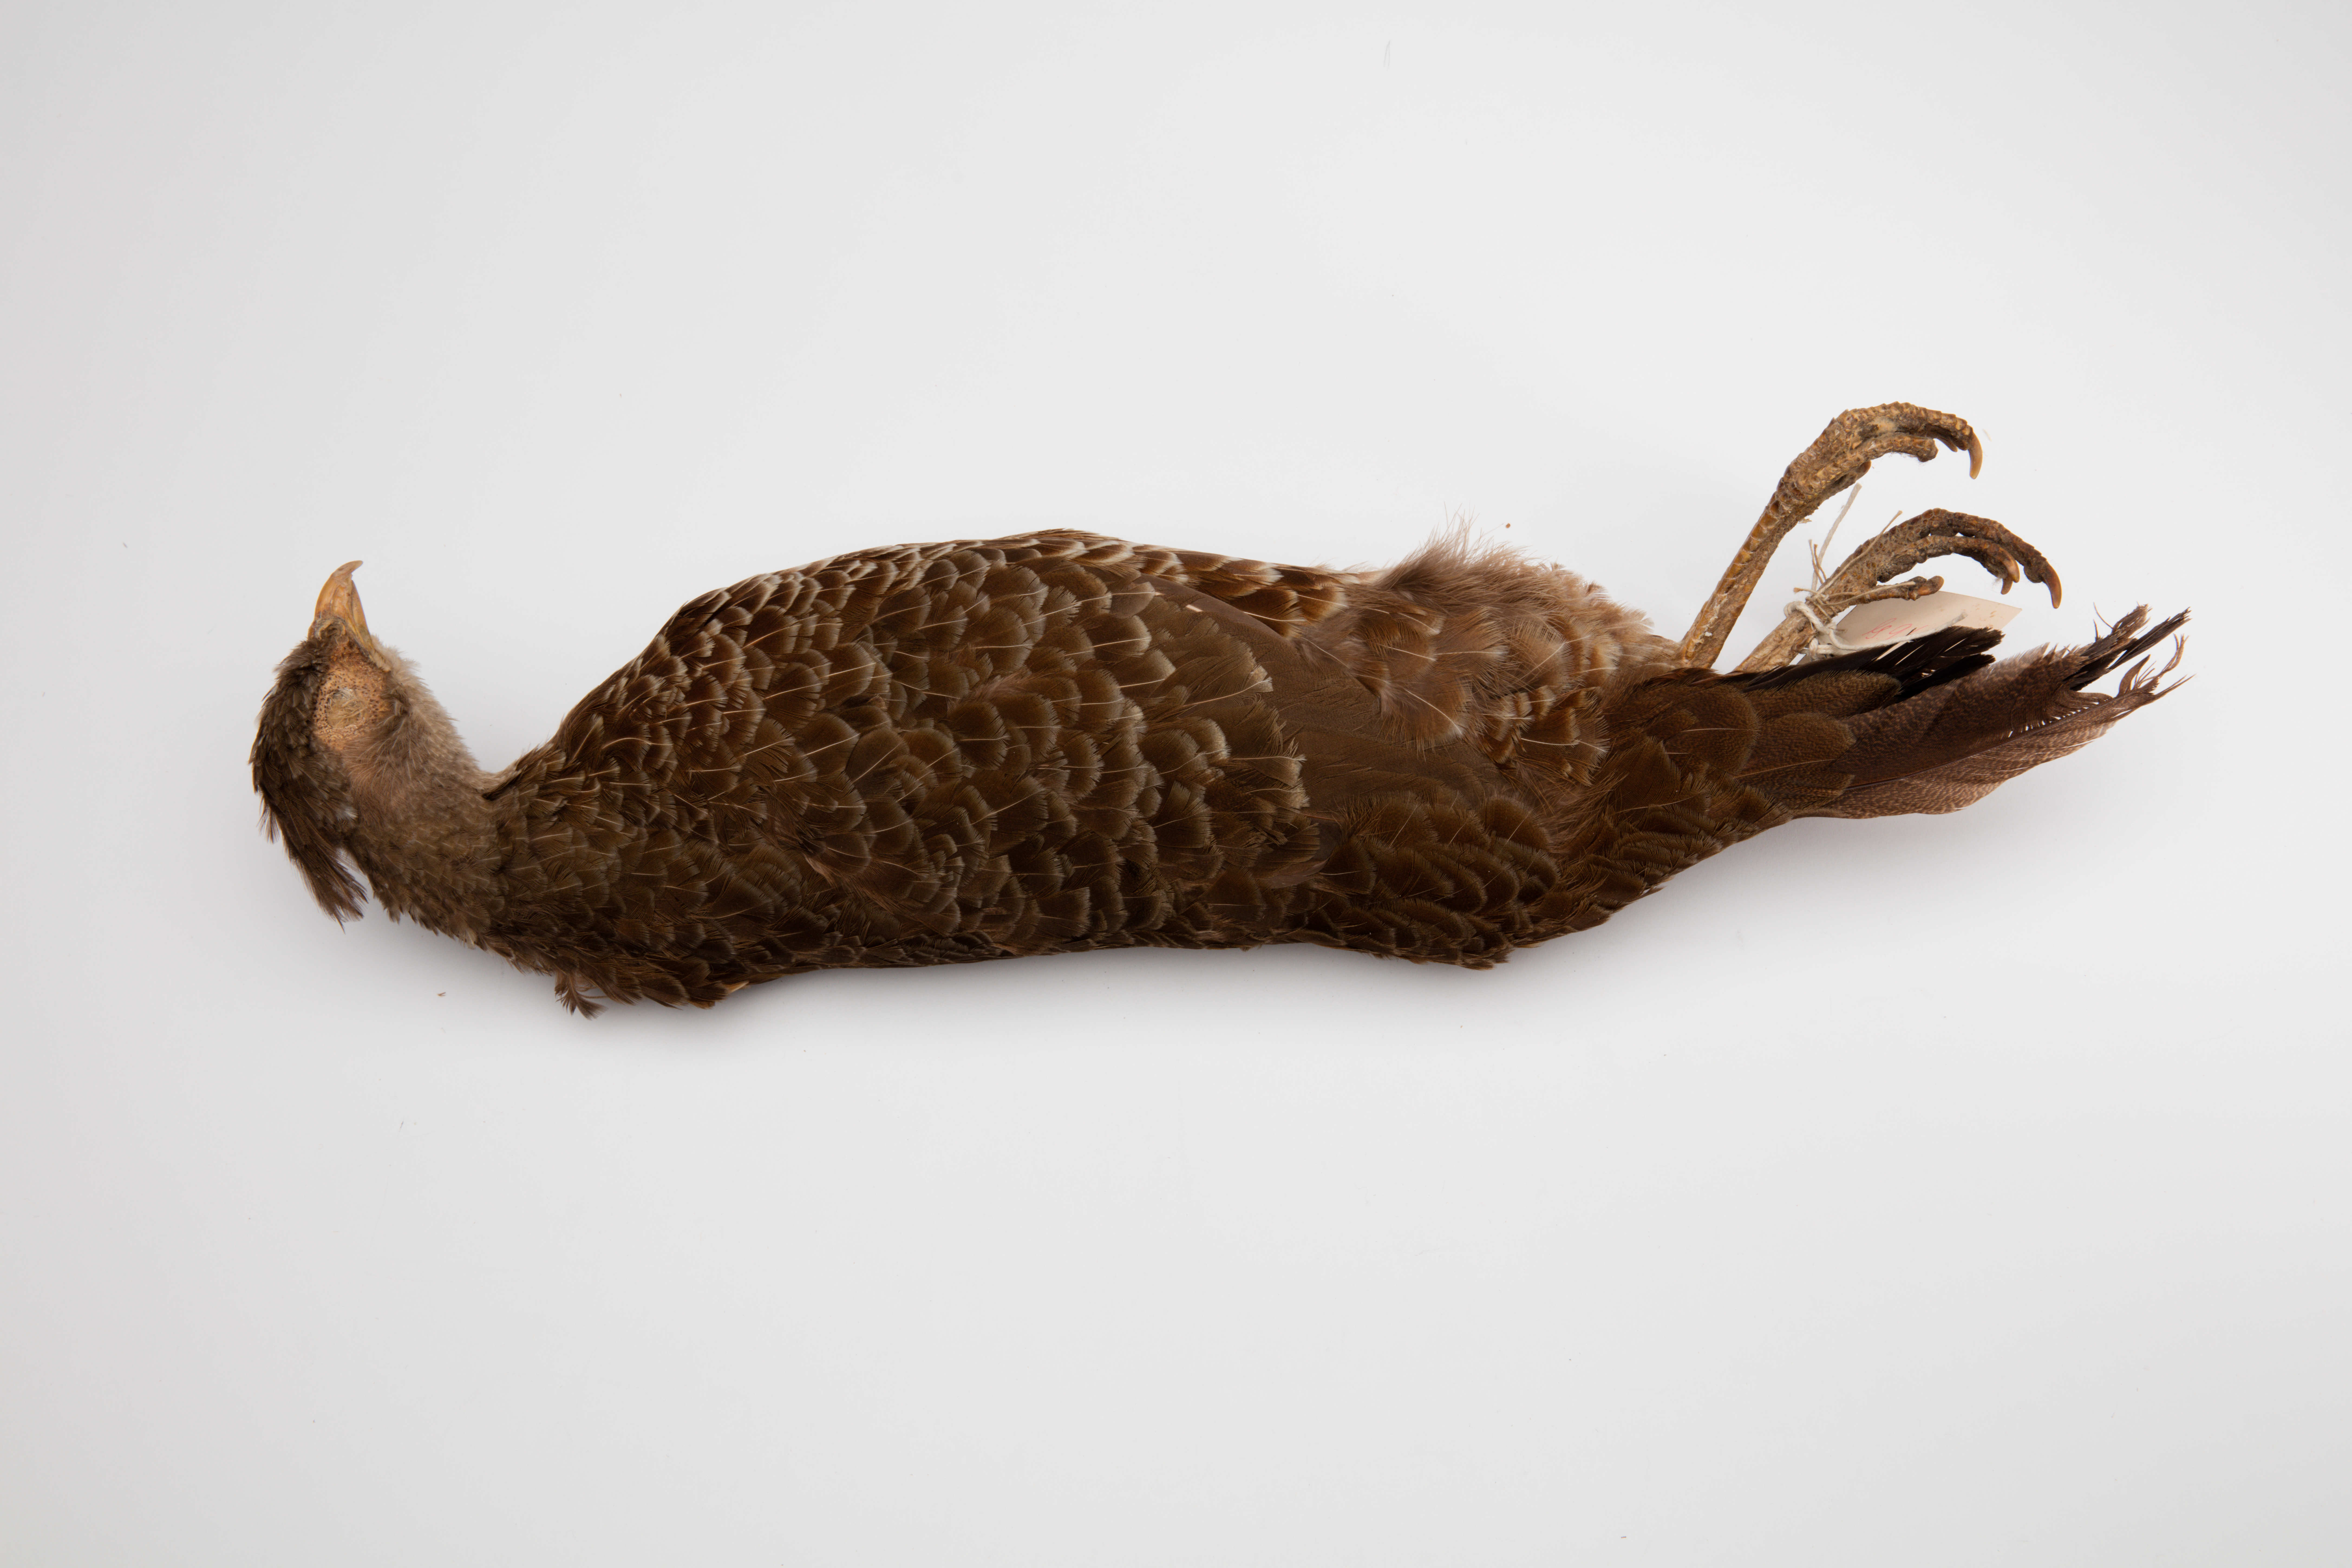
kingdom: Animalia
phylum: Chordata
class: Aves
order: Galliformes
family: Phasianidae
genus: Lophura
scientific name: Lophura leucomelanos
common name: Kalij pheasant
